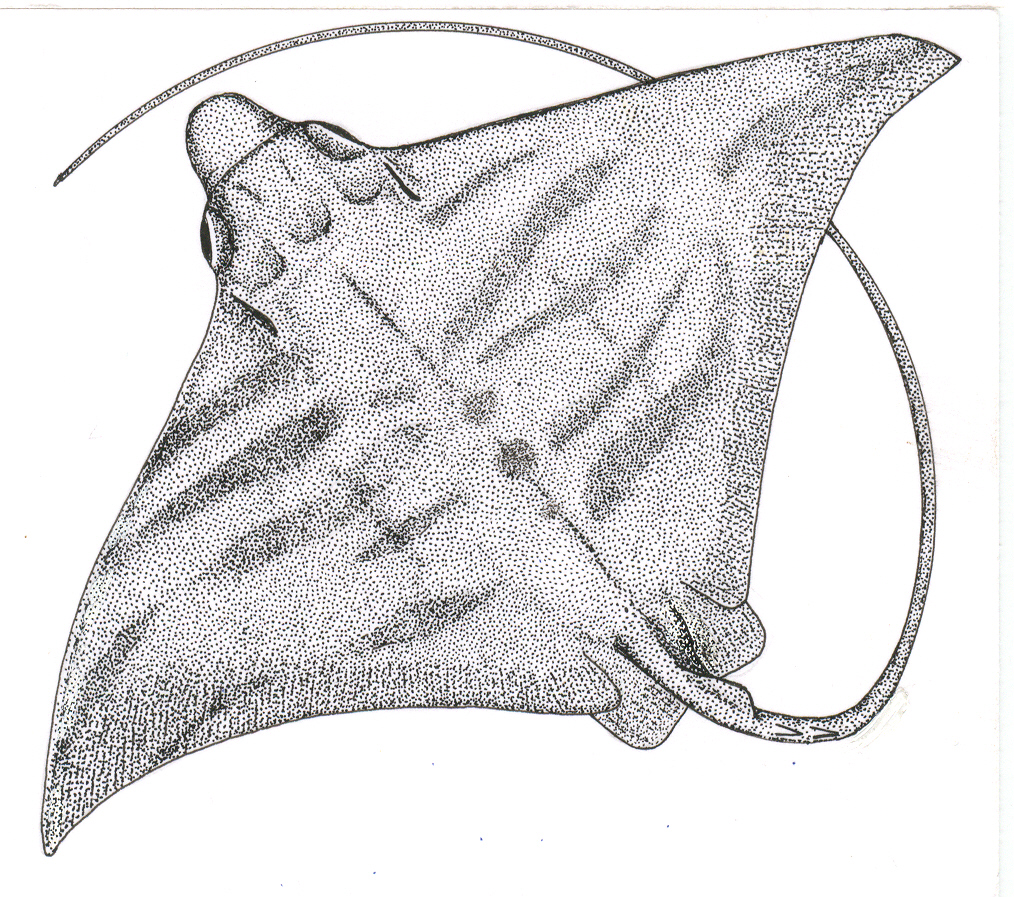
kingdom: Animalia
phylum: Chordata
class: Elasmobranchii
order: Myliobatiformes
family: Myliobatidae
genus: Aetomylaeus
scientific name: Aetomylaeus bovinus
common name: Bull ray
